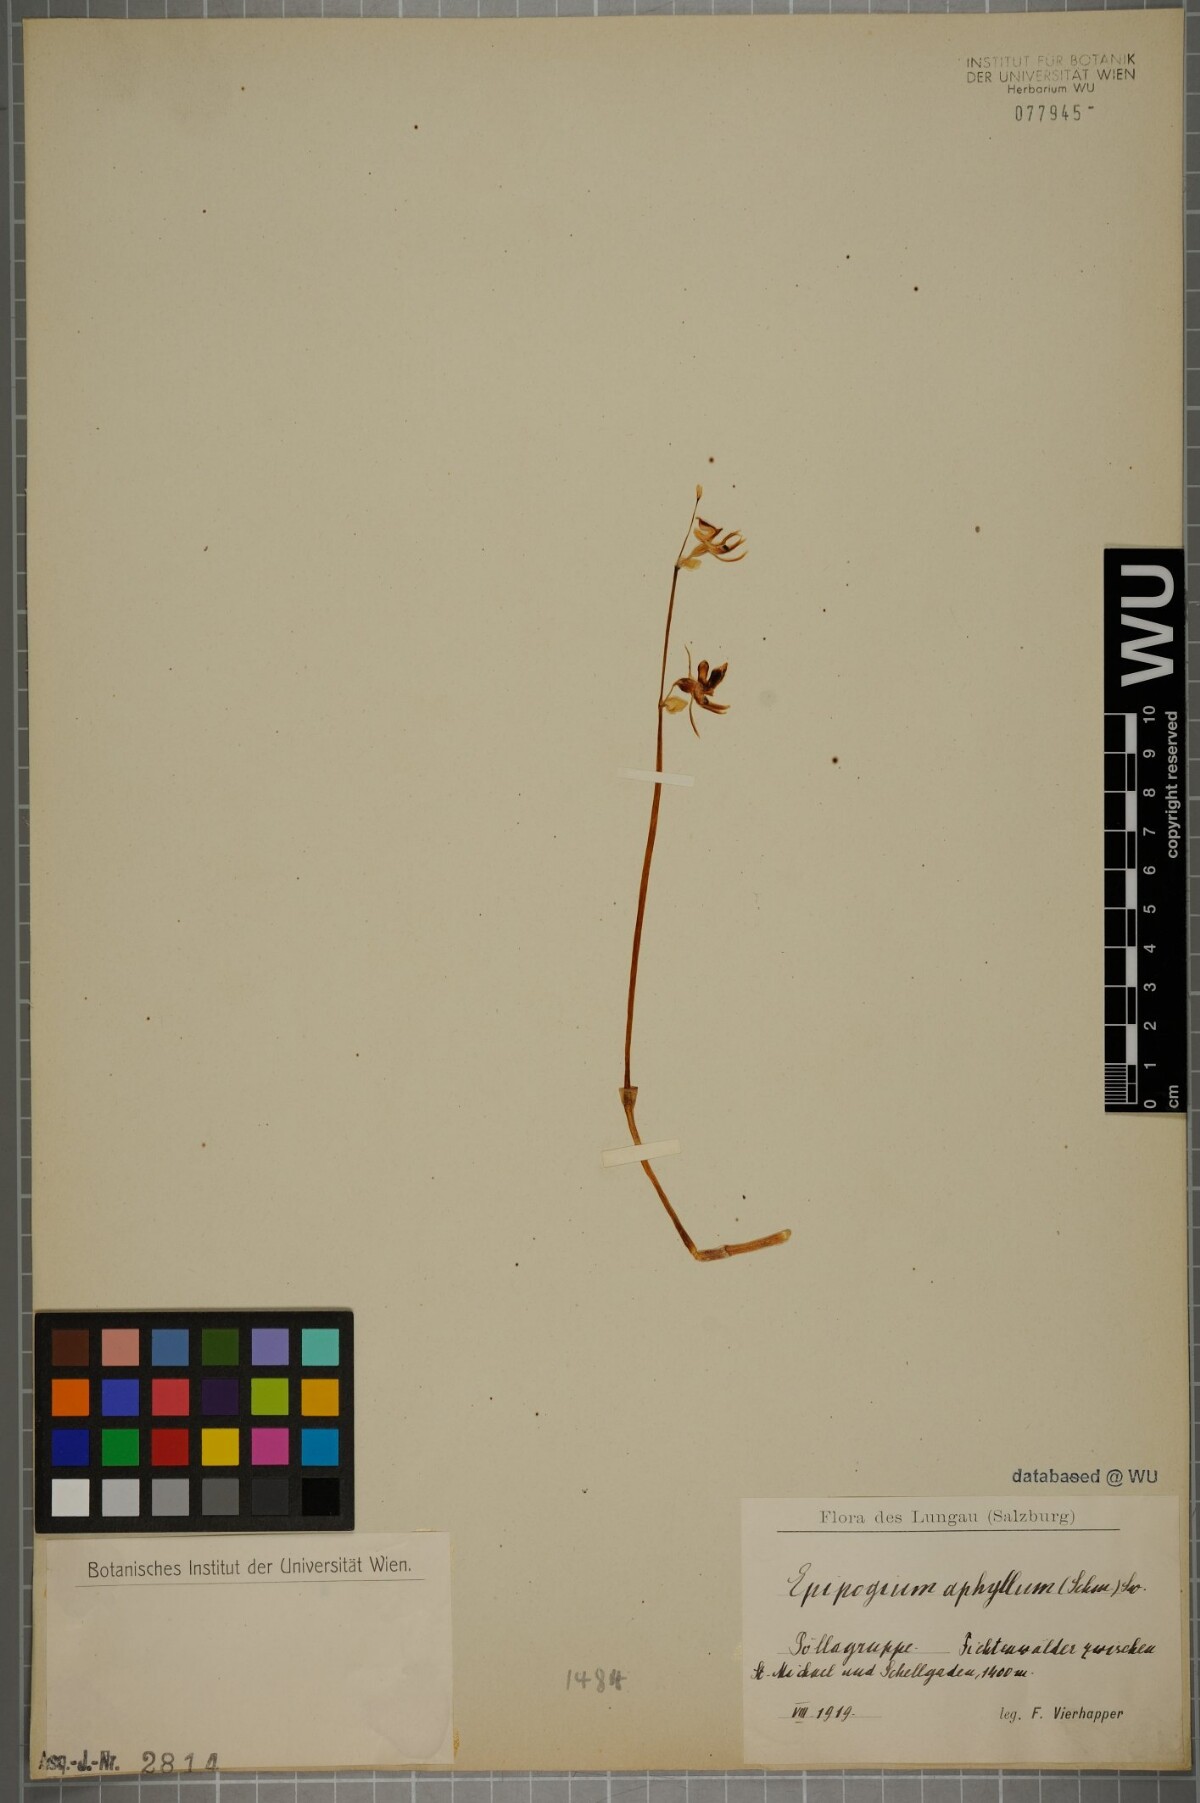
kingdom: Plantae
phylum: Tracheophyta
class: Liliopsida
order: Asparagales
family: Orchidaceae
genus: Epipogium
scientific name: Epipogium aphyllum
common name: Ghost orchid
